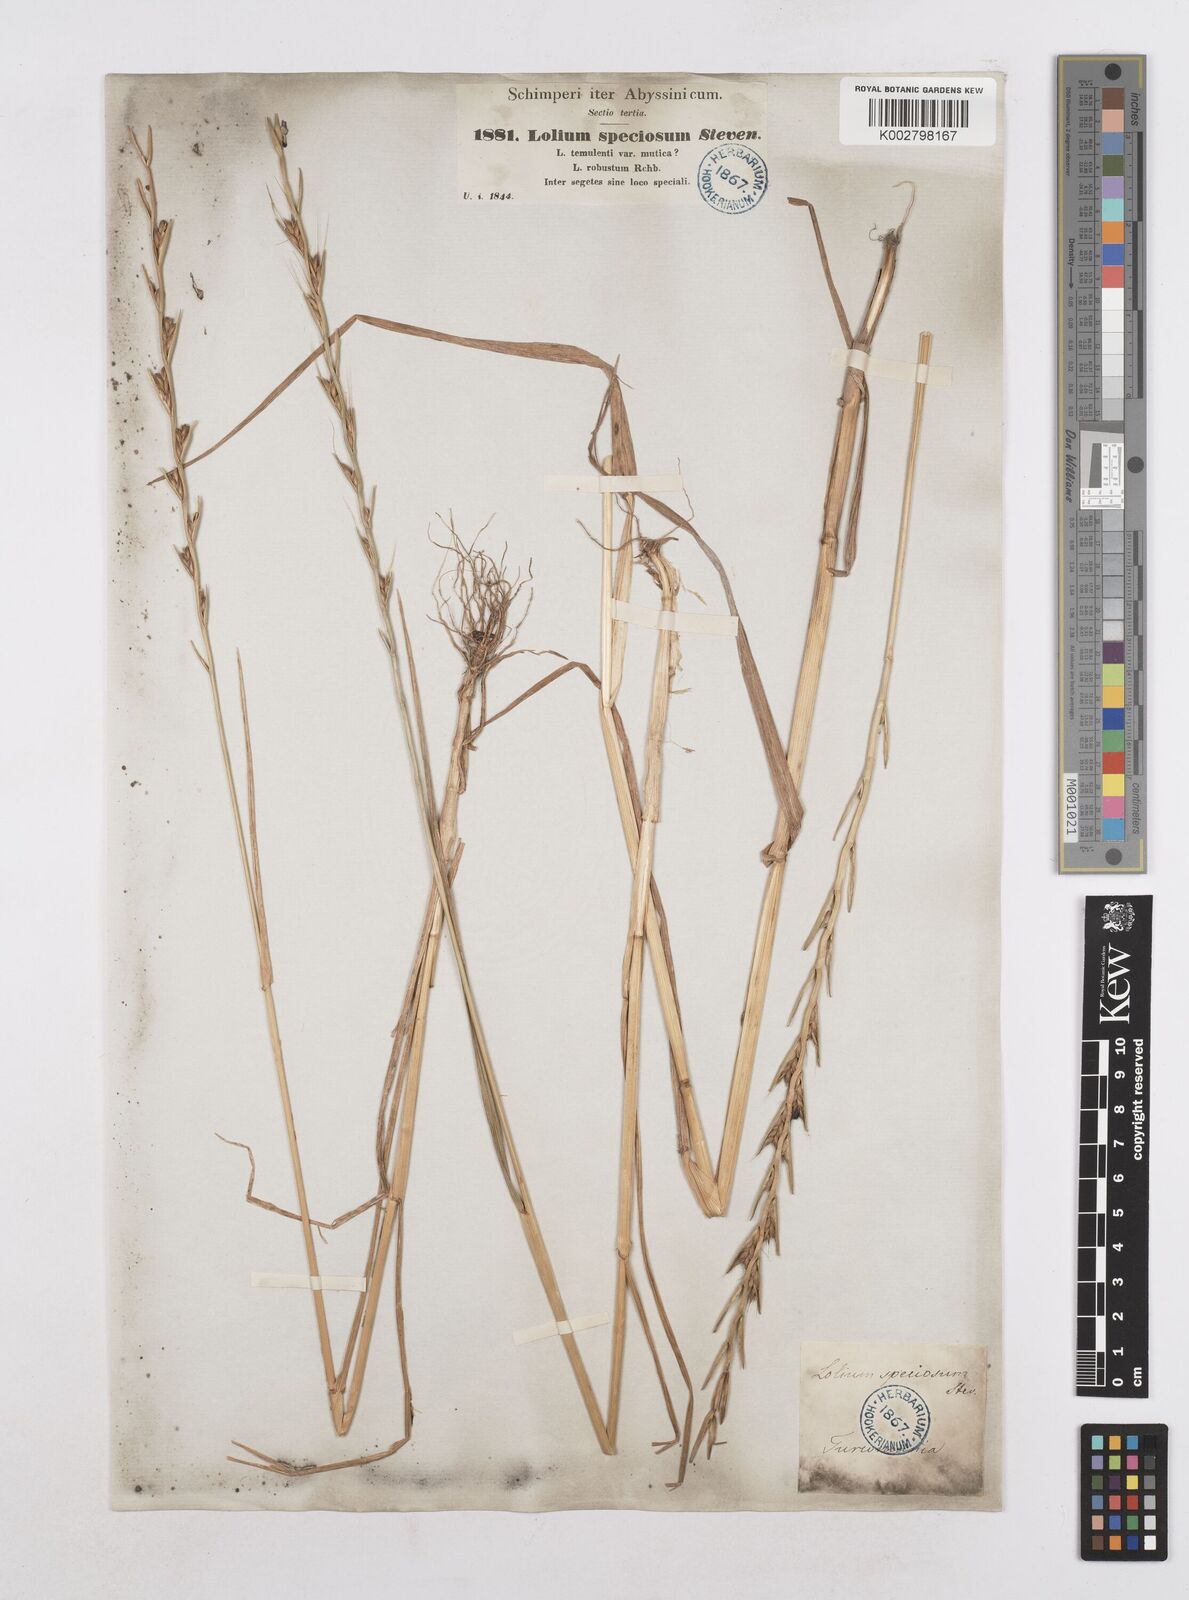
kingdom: Plantae
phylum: Tracheophyta
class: Liliopsida
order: Poales
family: Poaceae
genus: Lolium
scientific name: Lolium temulentum
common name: Darnel
